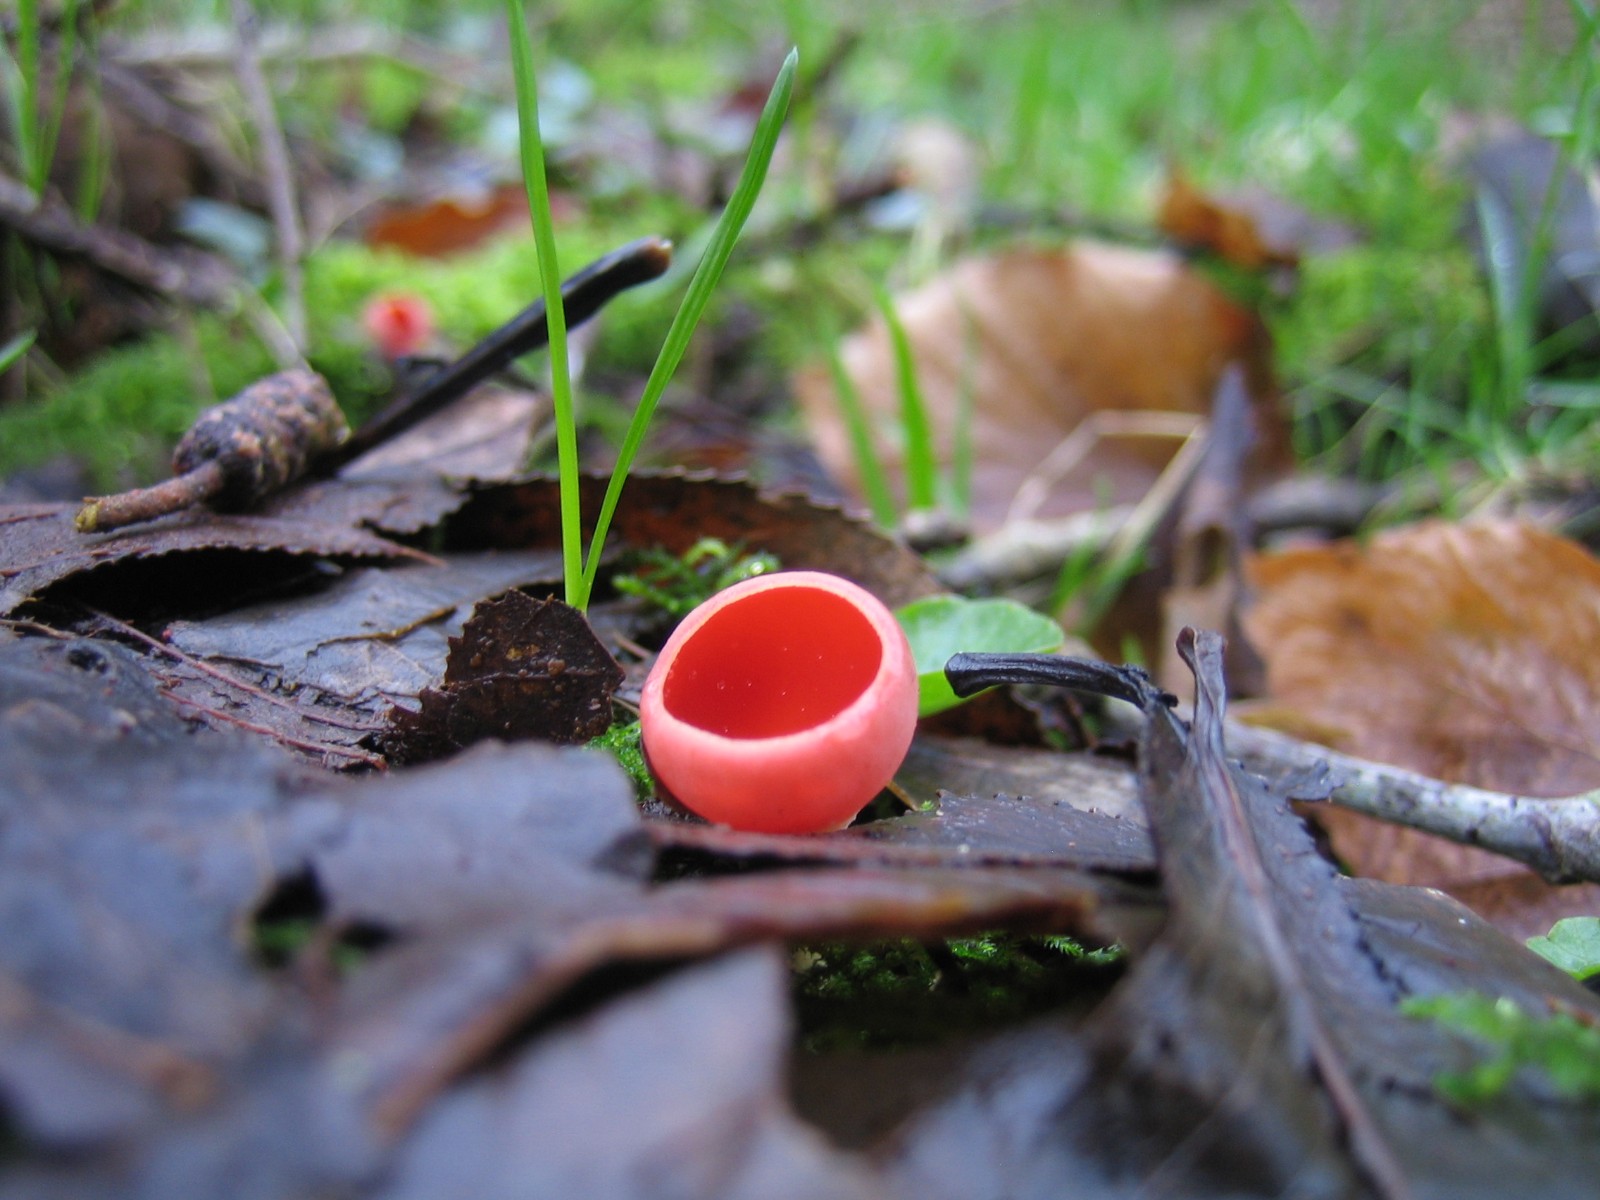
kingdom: Fungi
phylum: Ascomycota
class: Pezizomycetes
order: Pezizales
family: Sarcoscyphaceae
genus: Sarcoscypha
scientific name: Sarcoscypha austriaca
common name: krølhåret pragtbæger
